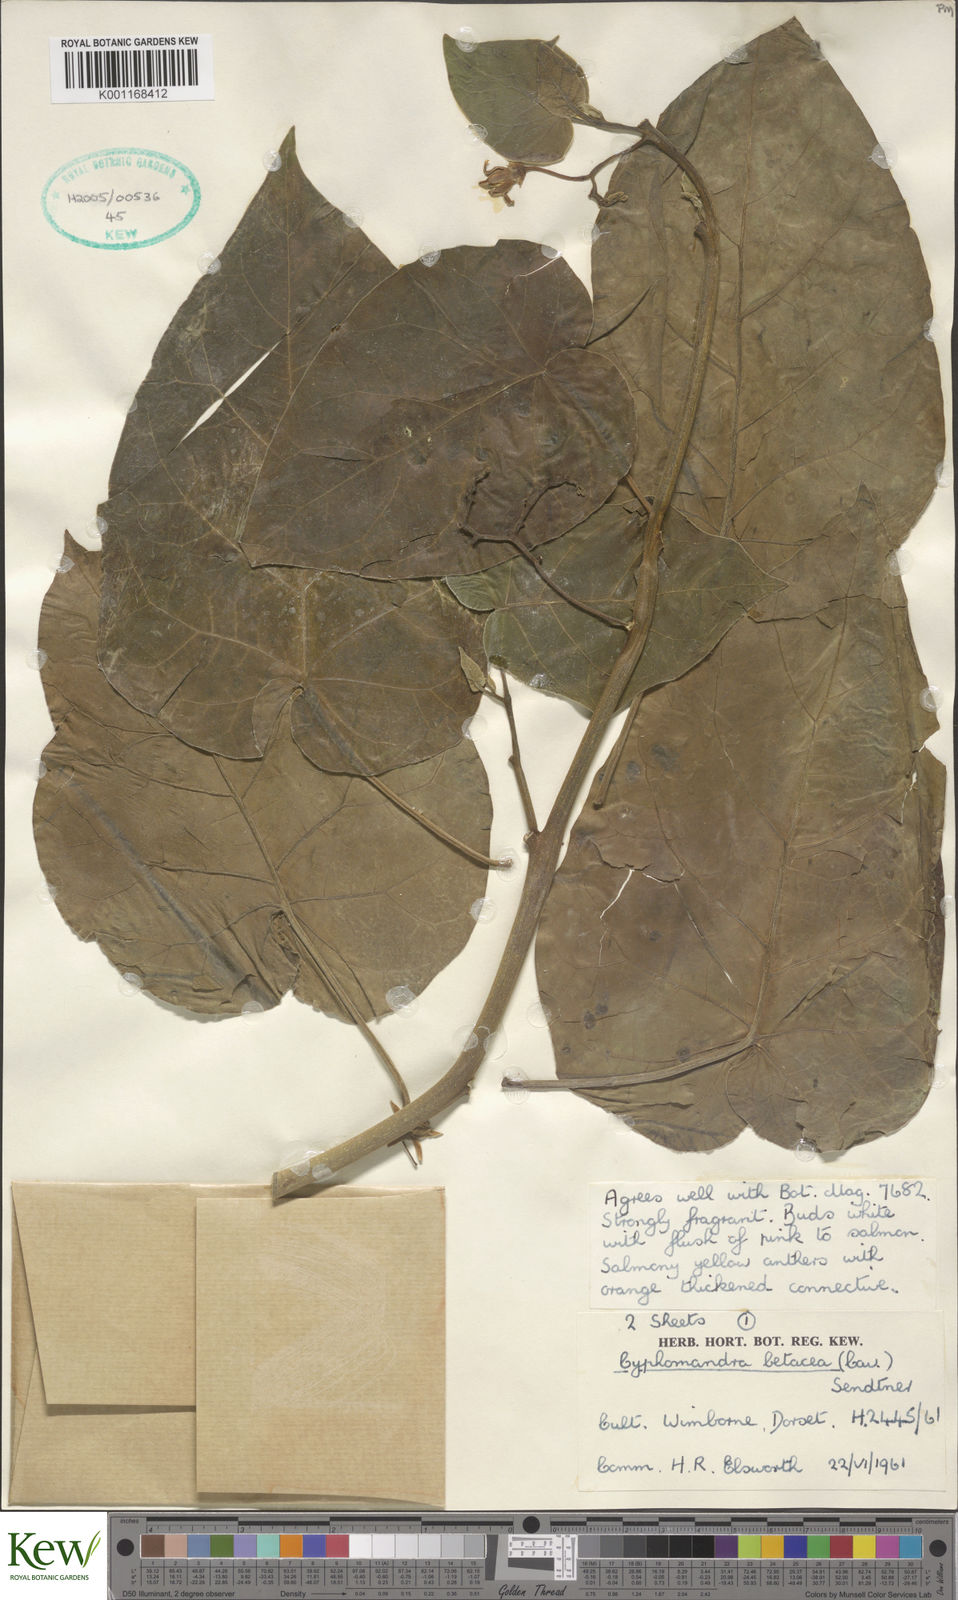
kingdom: Plantae
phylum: Tracheophyta
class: Magnoliopsida
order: Solanales
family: Solanaceae
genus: Solanum
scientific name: Solanum betaceum
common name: Tamarillo
